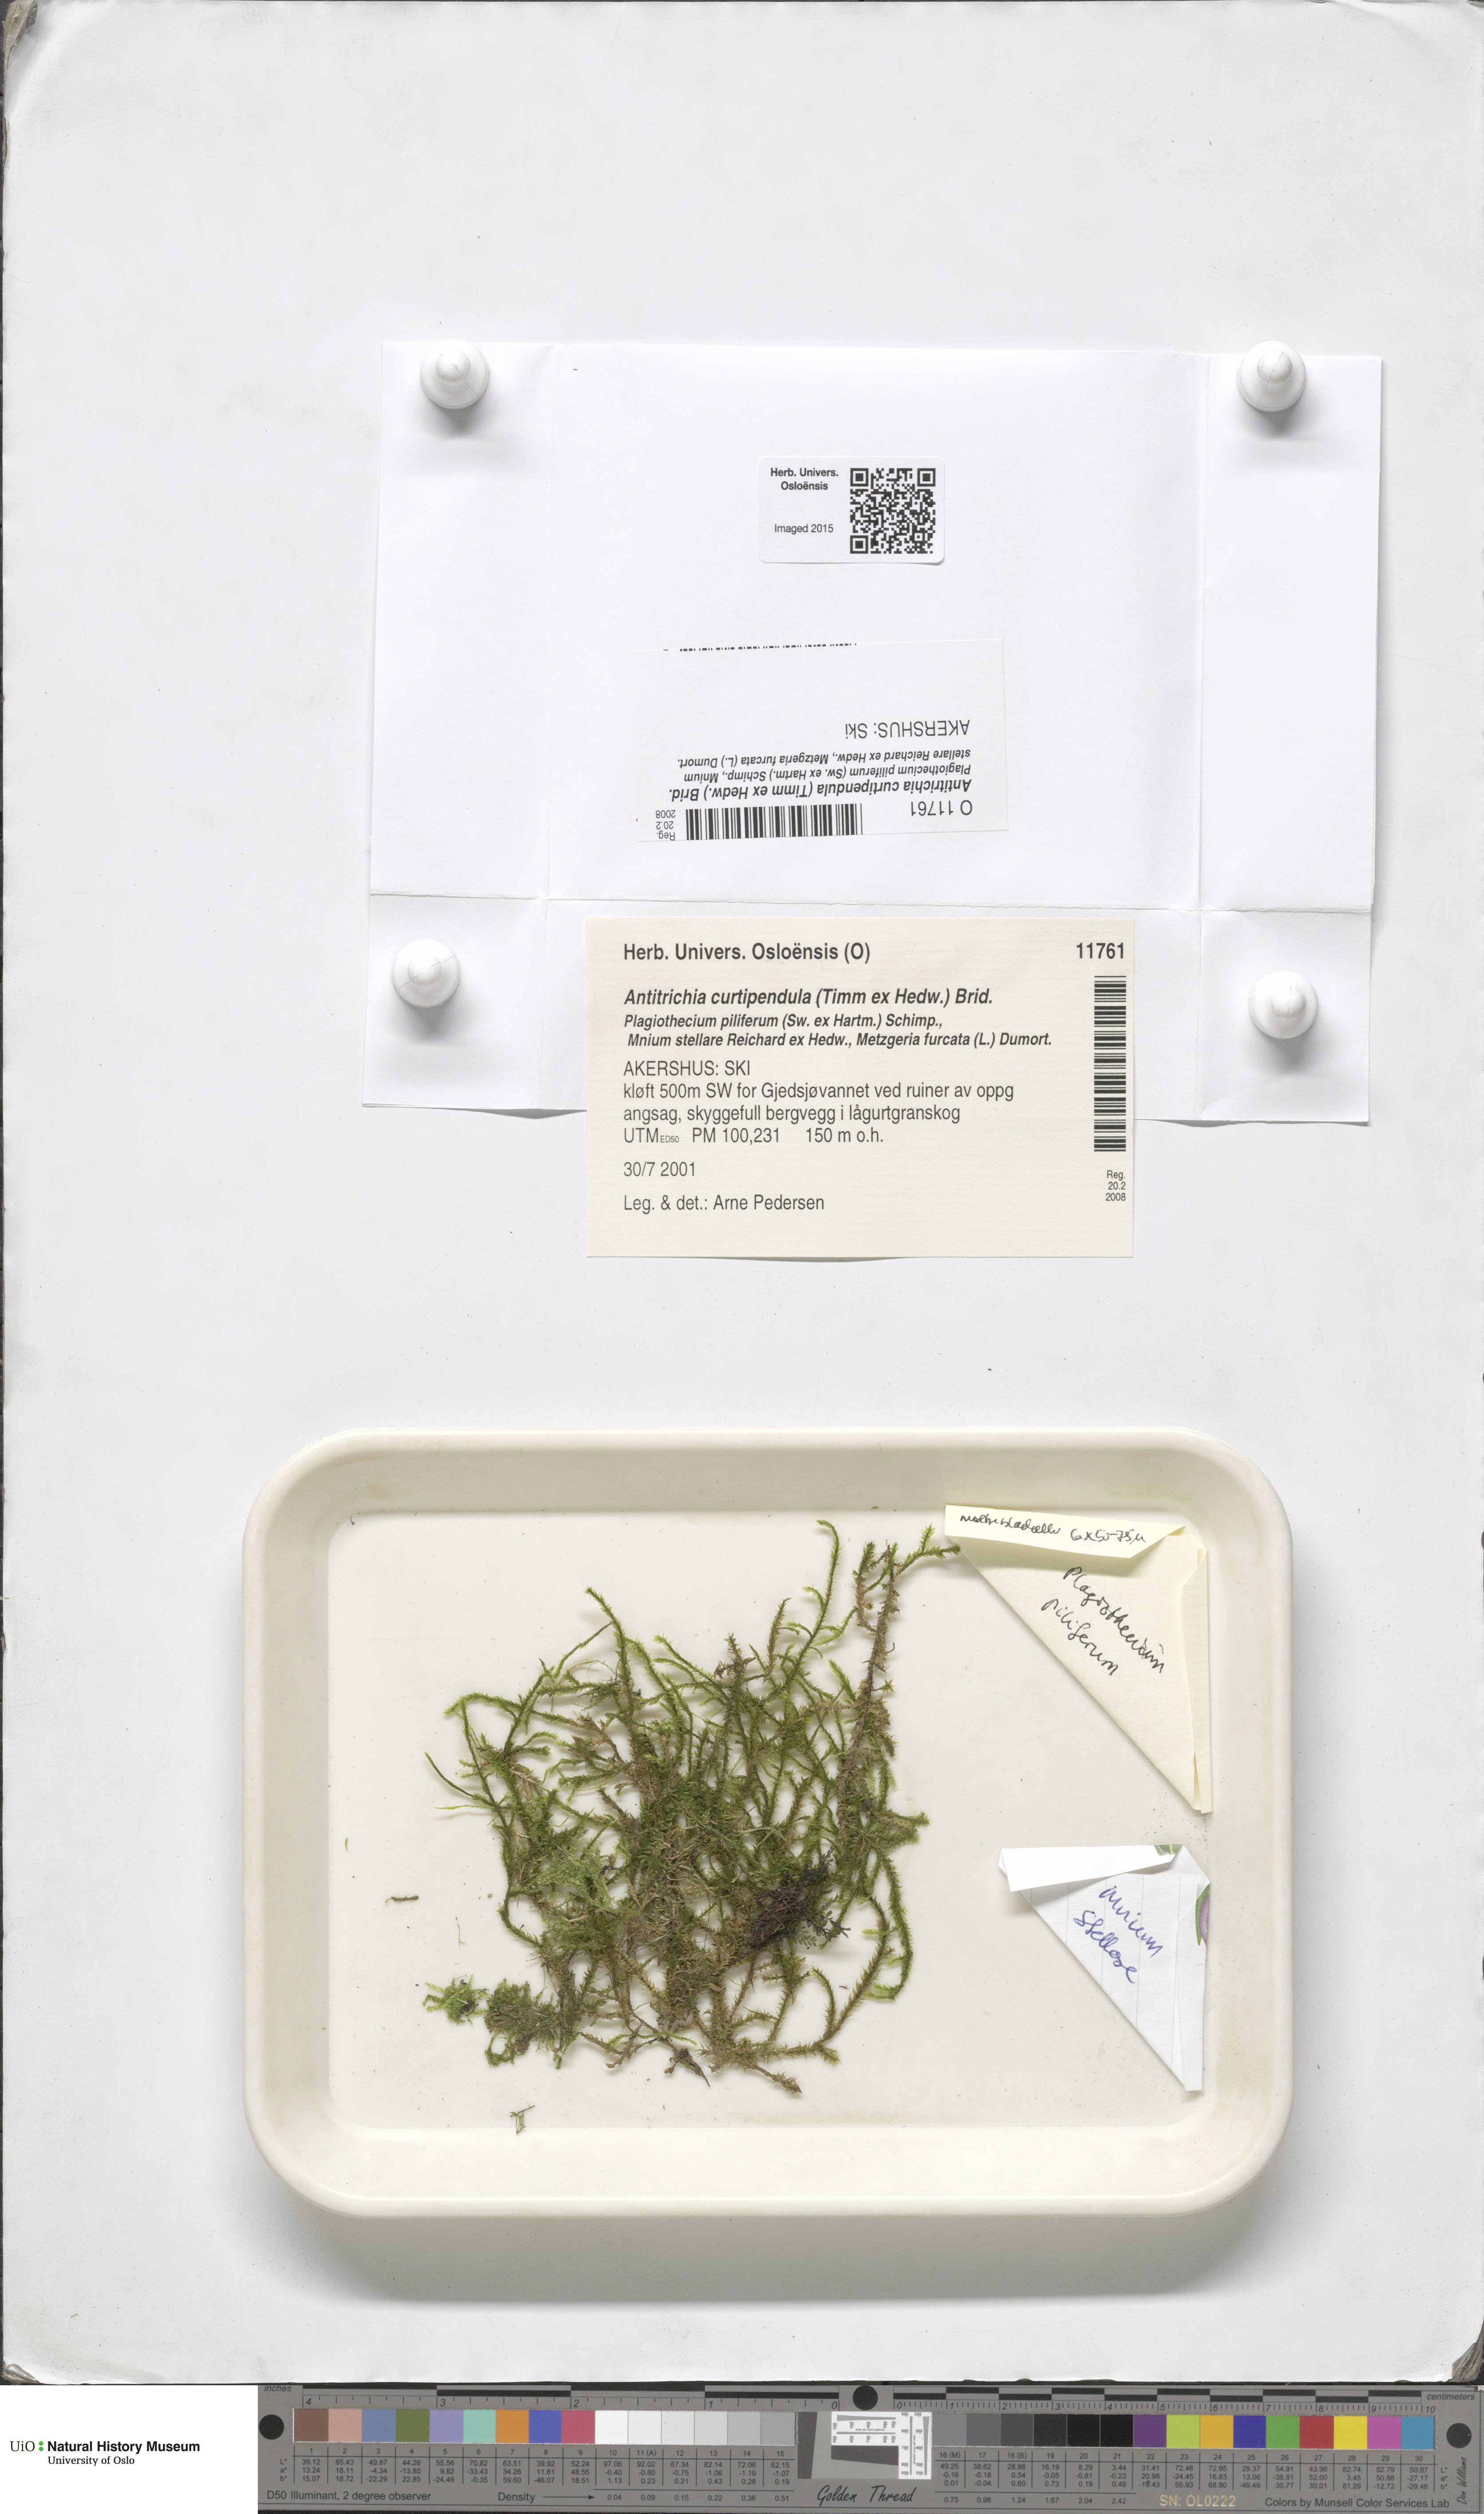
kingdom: Plantae
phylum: Bryophyta
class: Bryopsida
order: Hypnales
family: Antitrichiaceae
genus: Antitrichia
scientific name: Antitrichia curtipendula
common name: Pendulous wing-moss
